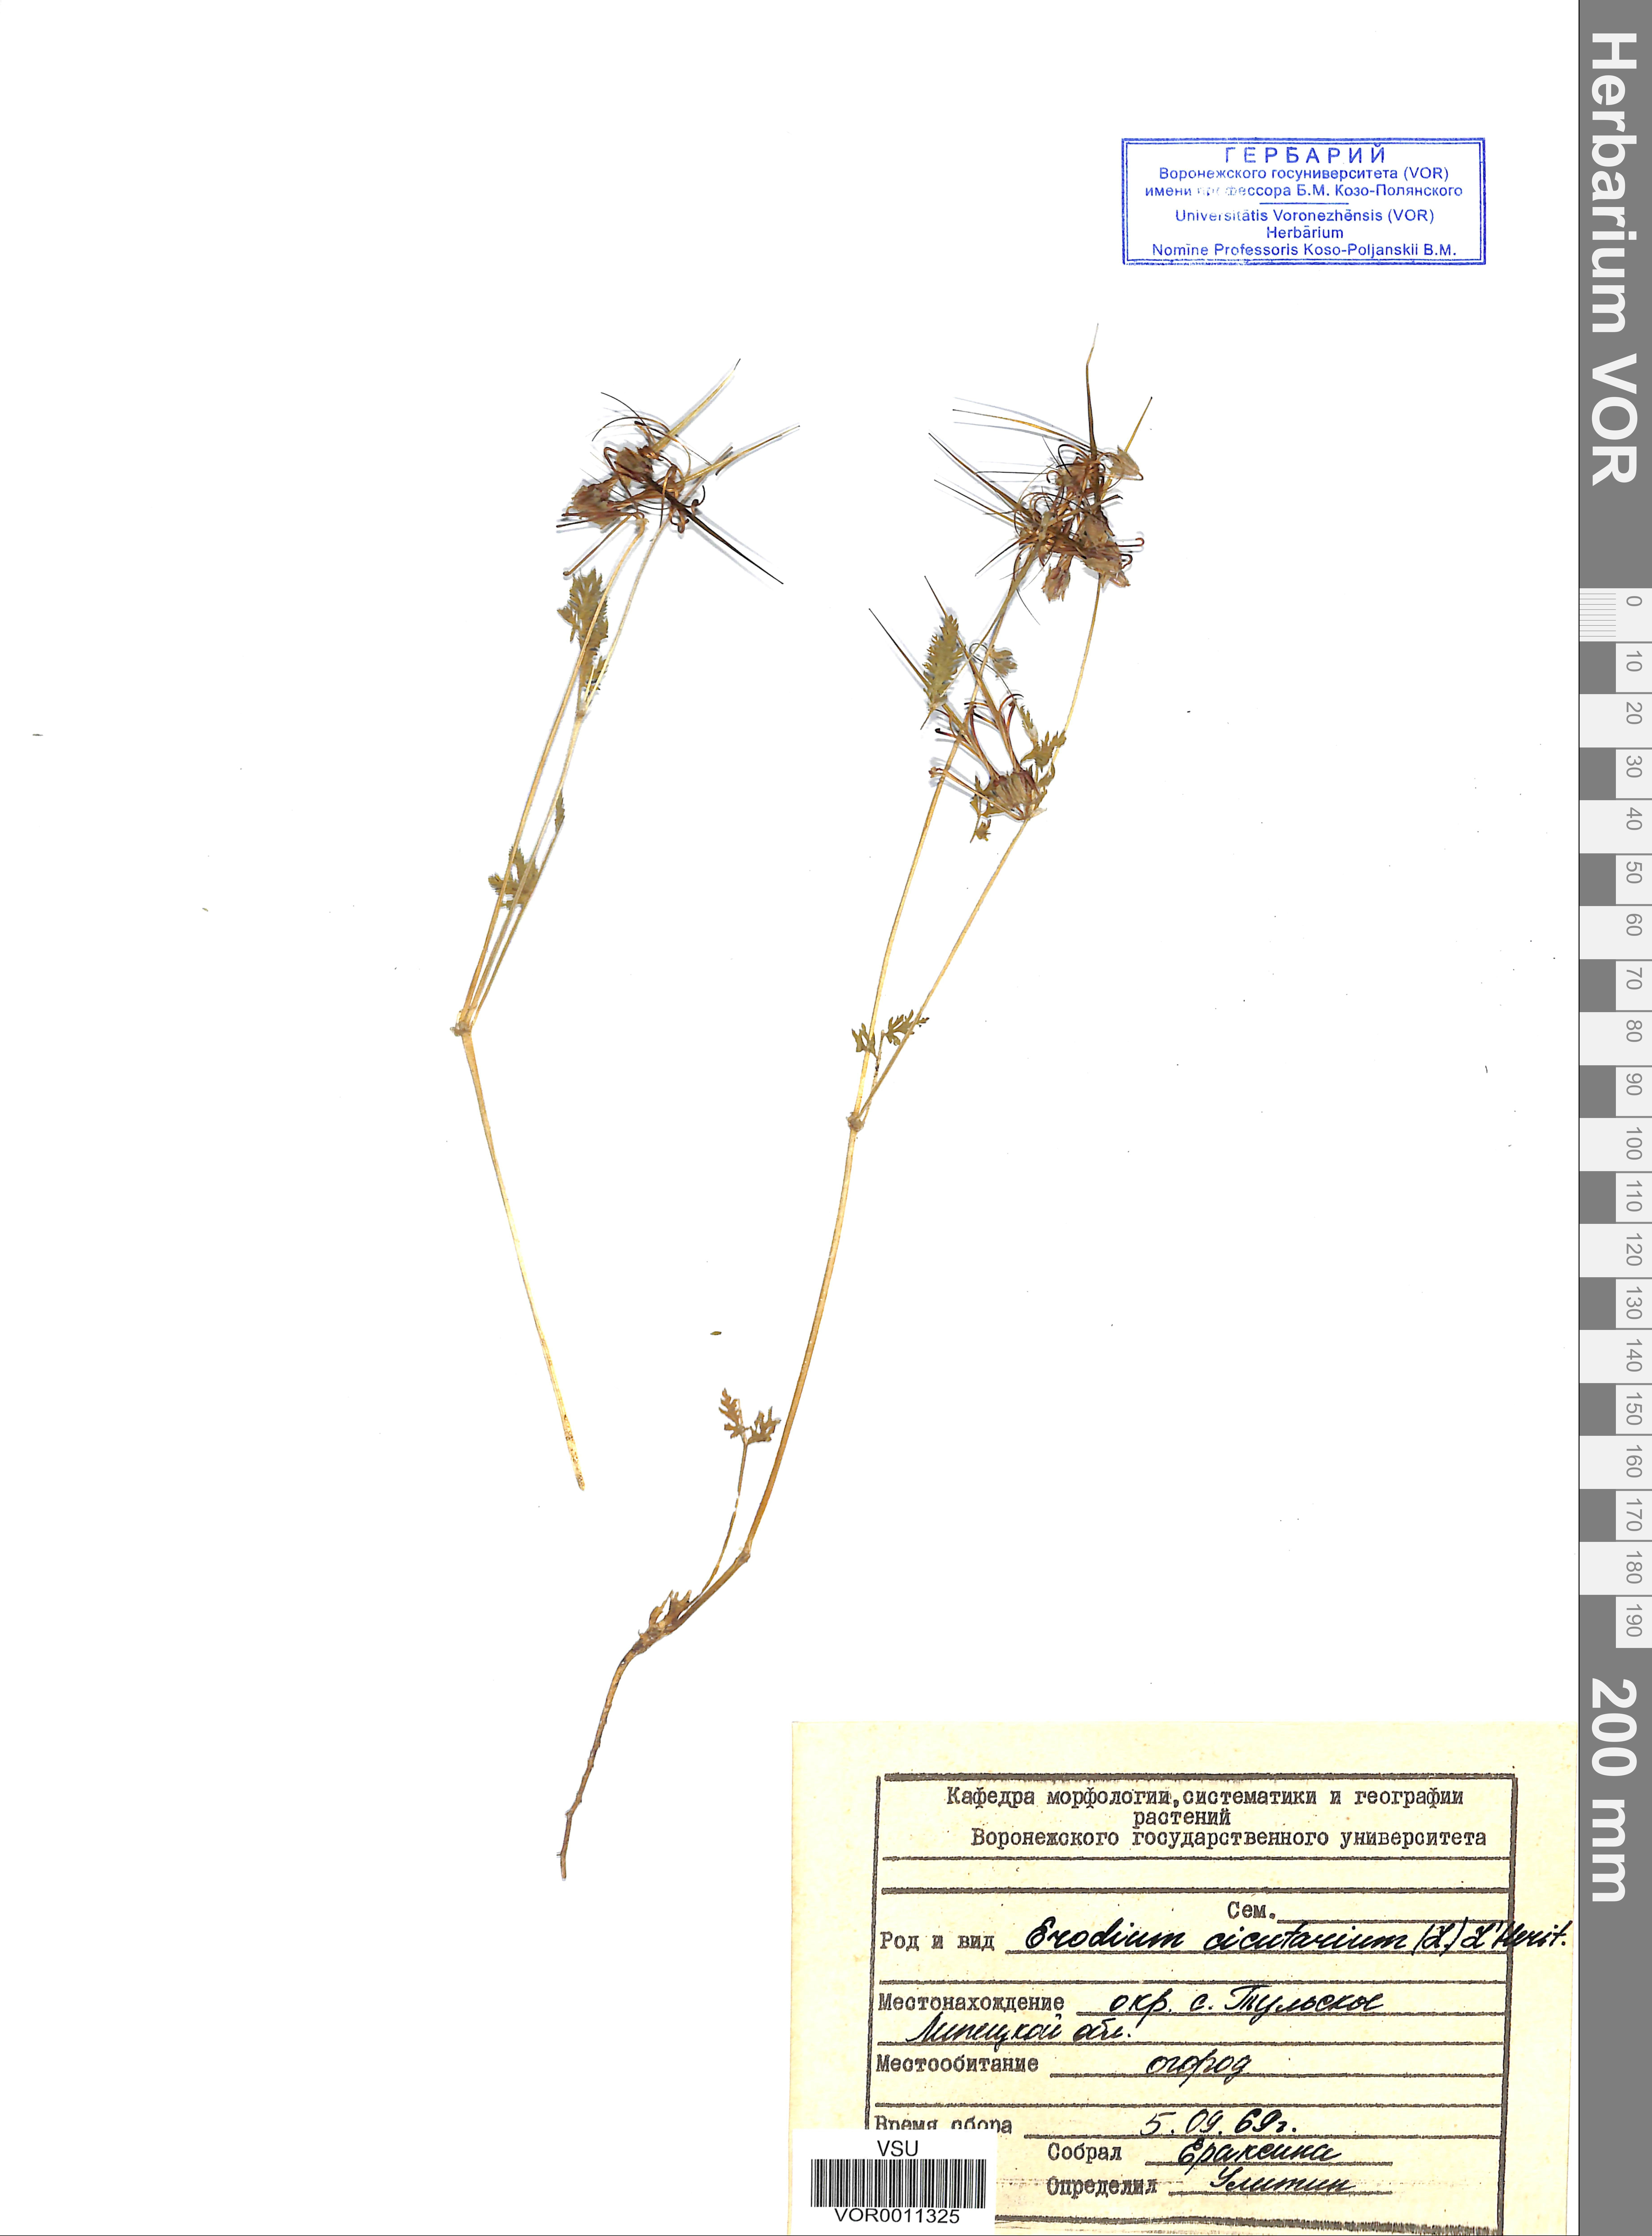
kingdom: Plantae
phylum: Tracheophyta
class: Magnoliopsida
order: Geraniales
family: Geraniaceae
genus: Erodium
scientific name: Erodium cicutarium
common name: Common stork's-bill
